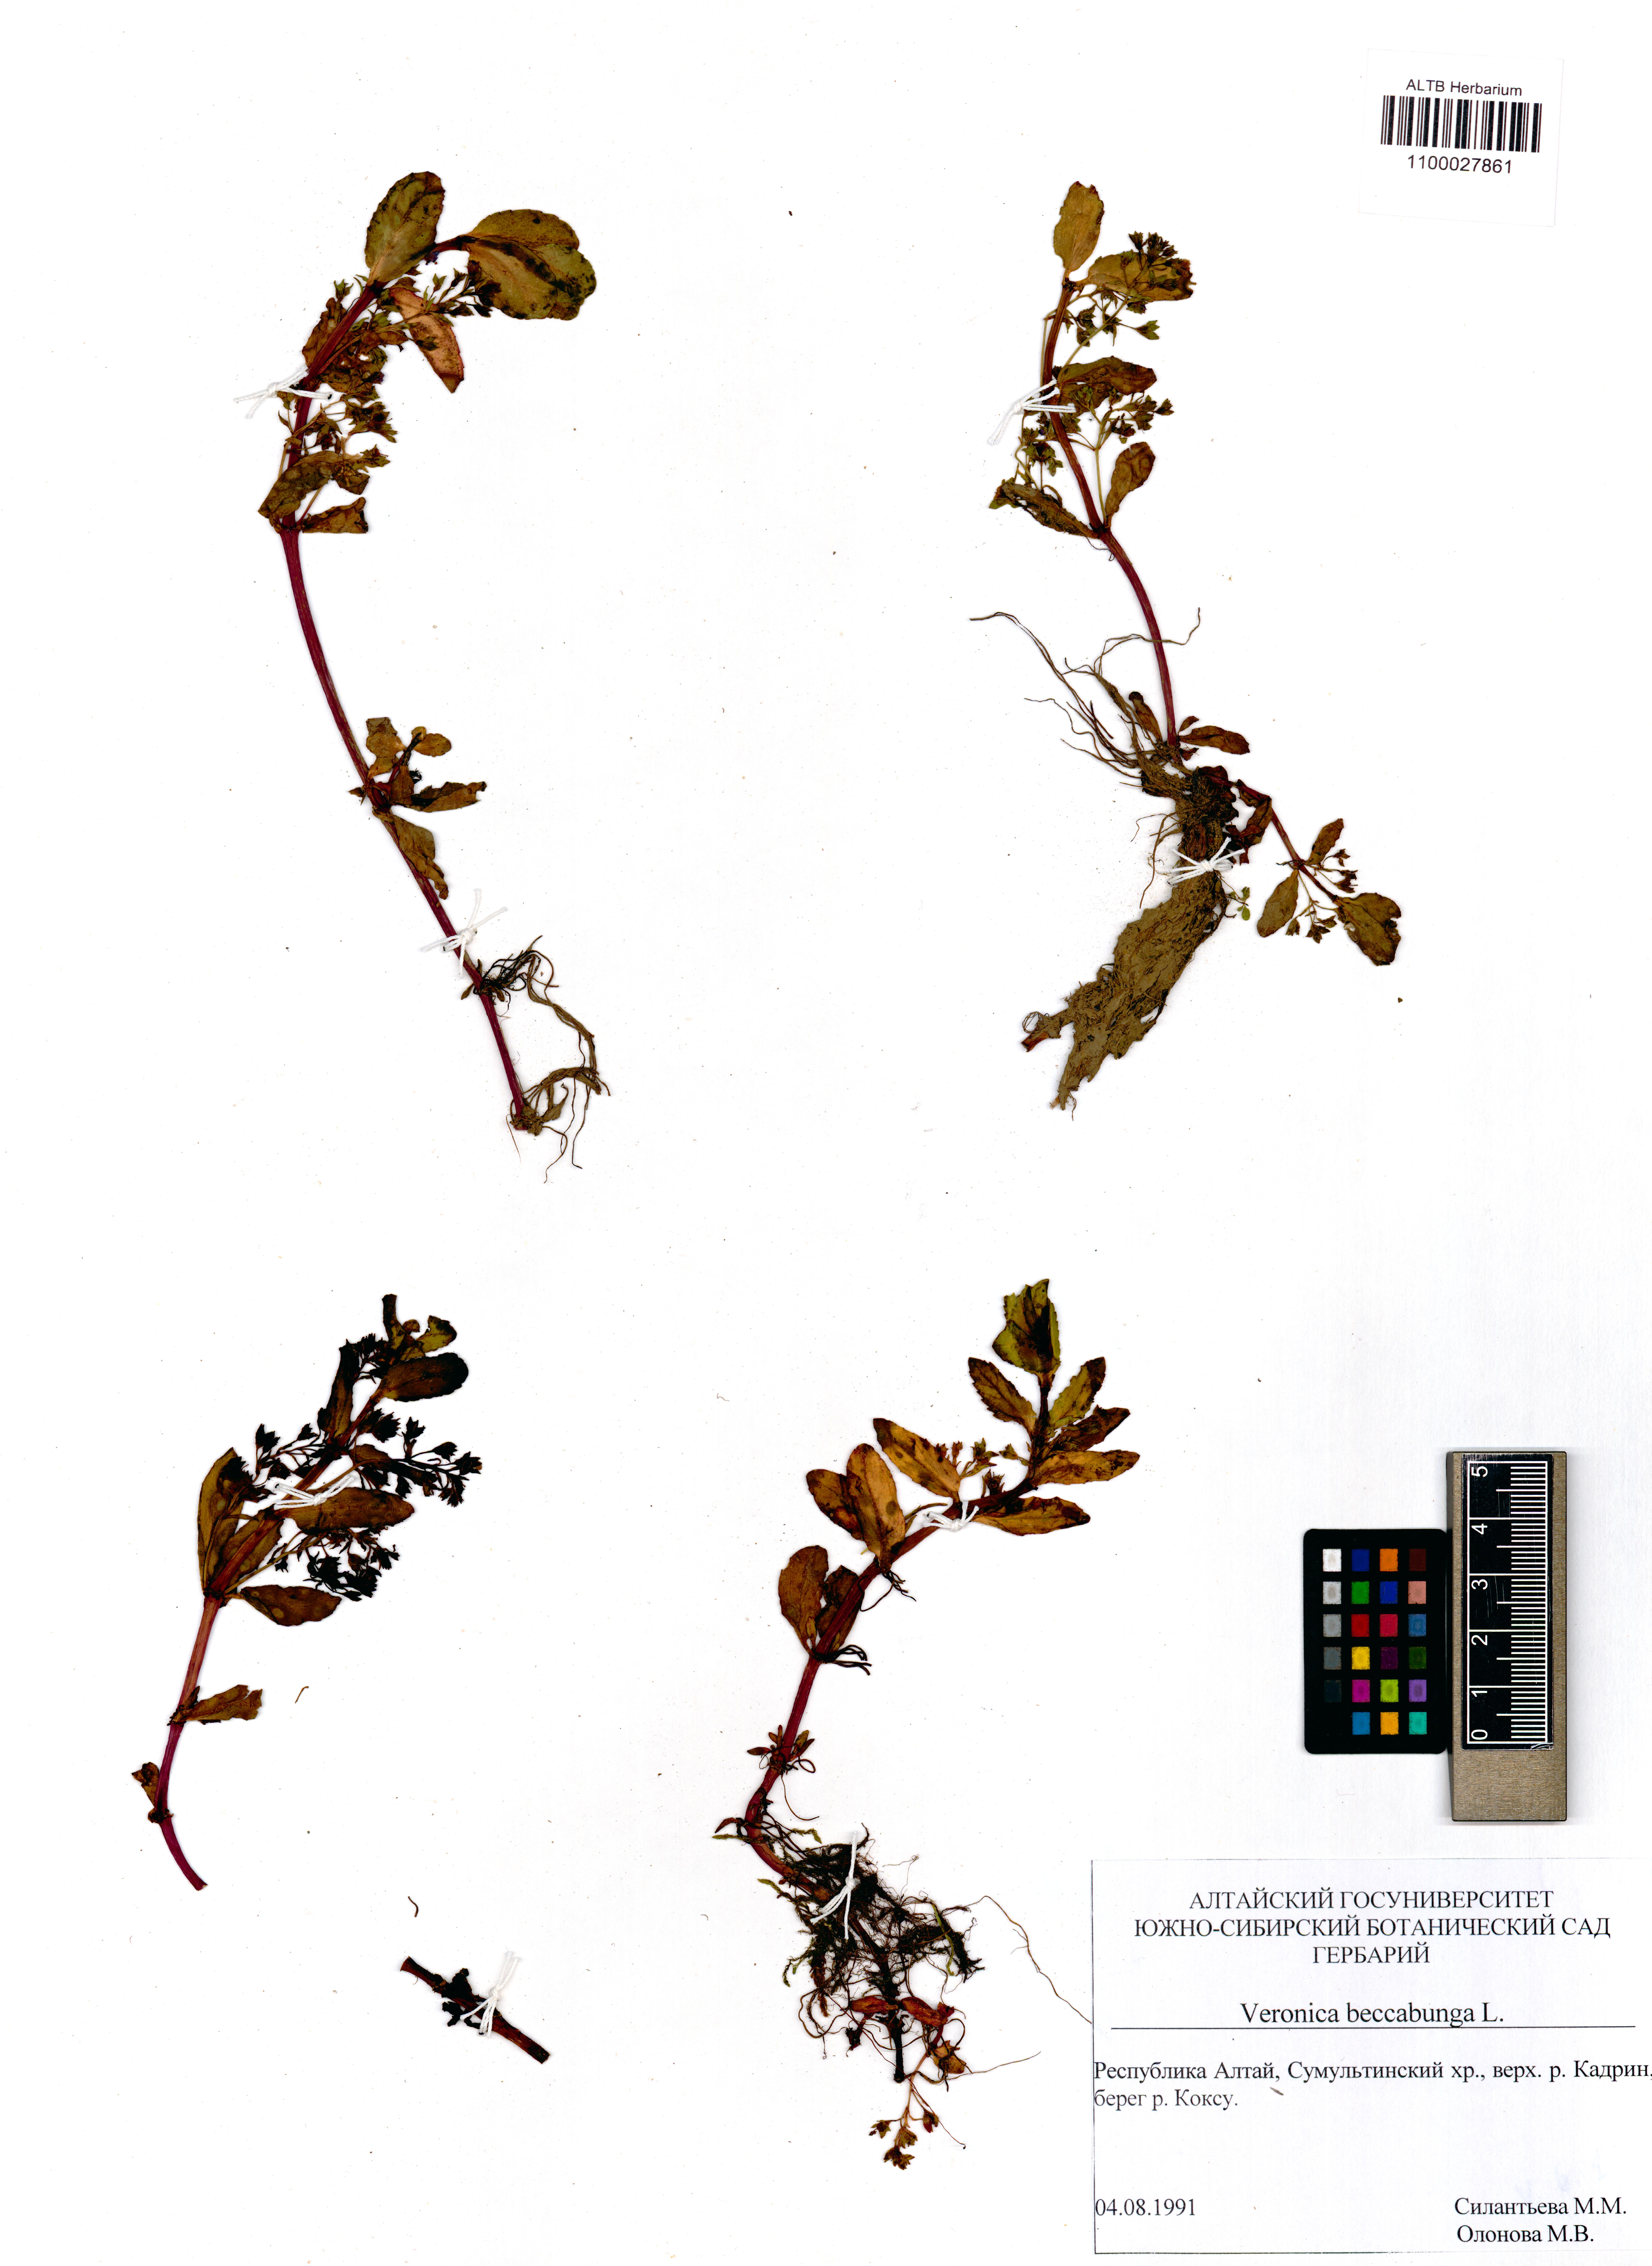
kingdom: Plantae
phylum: Tracheophyta
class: Magnoliopsida
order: Lamiales
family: Plantaginaceae
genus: Veronica
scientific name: Veronica beccabunga
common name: Brooklime
